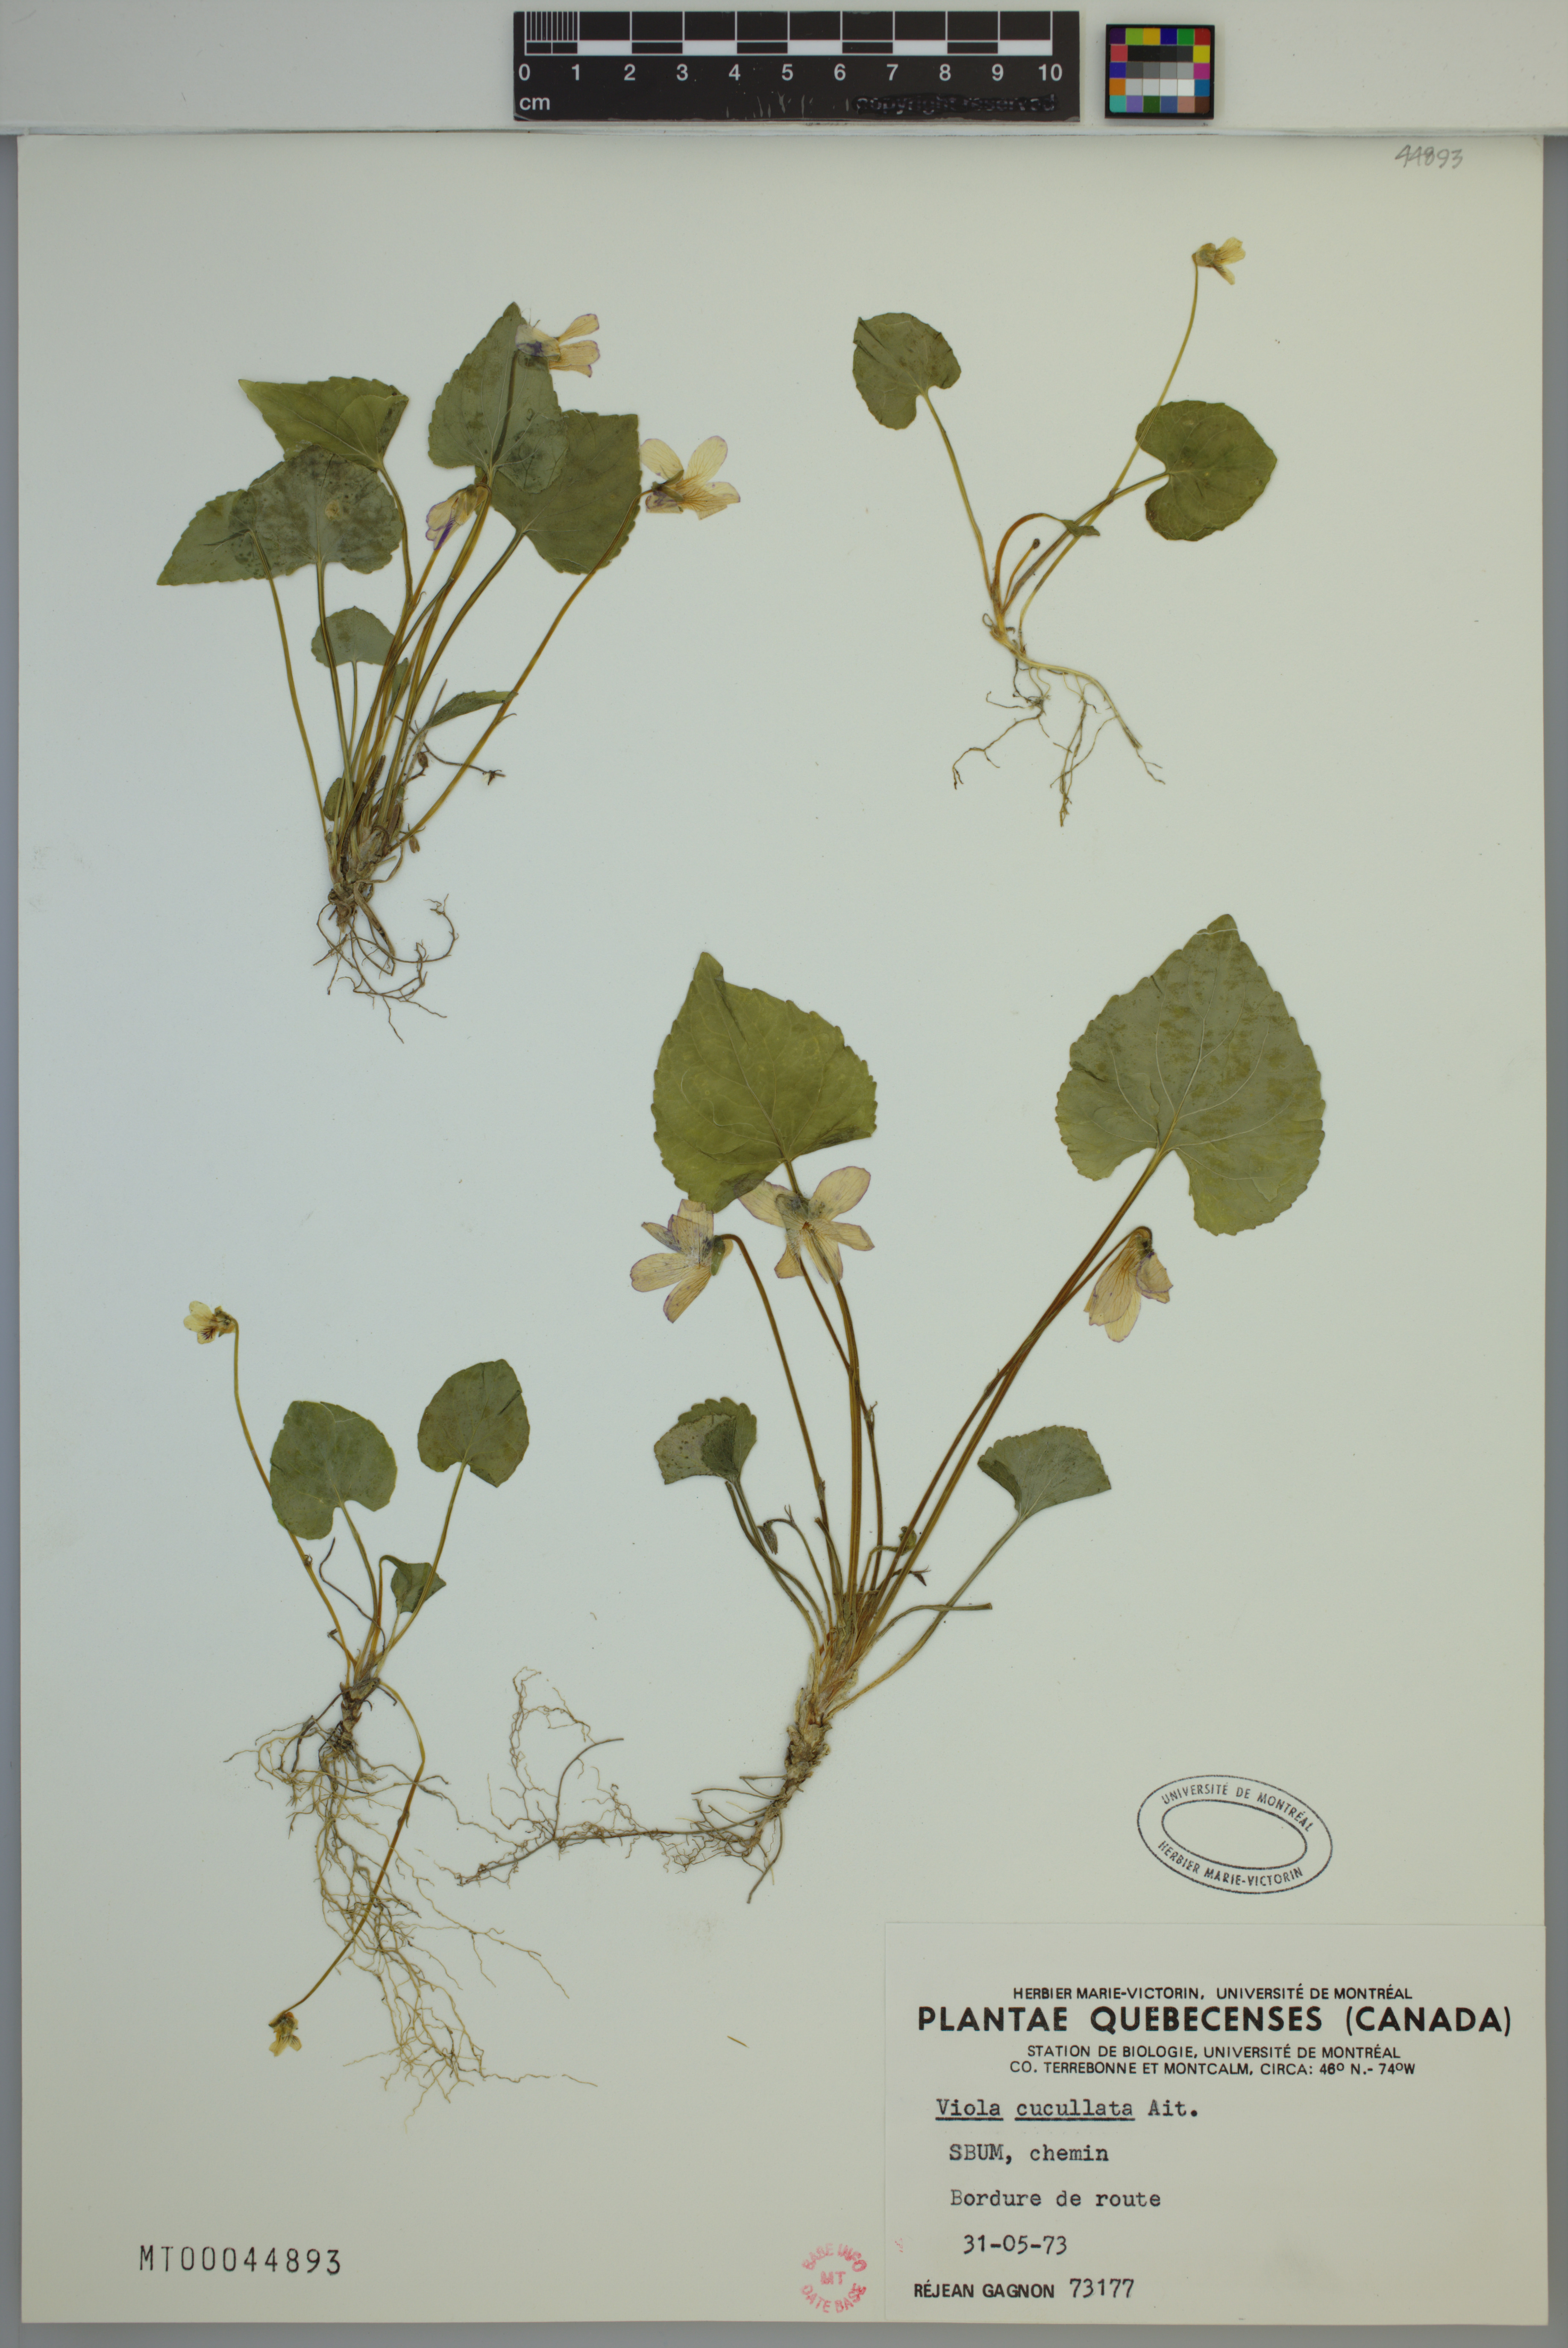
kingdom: Plantae
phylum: Tracheophyta
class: Magnoliopsida
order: Malpighiales
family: Violaceae
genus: Viola
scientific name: Viola cucullata
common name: Marsh blue violet
